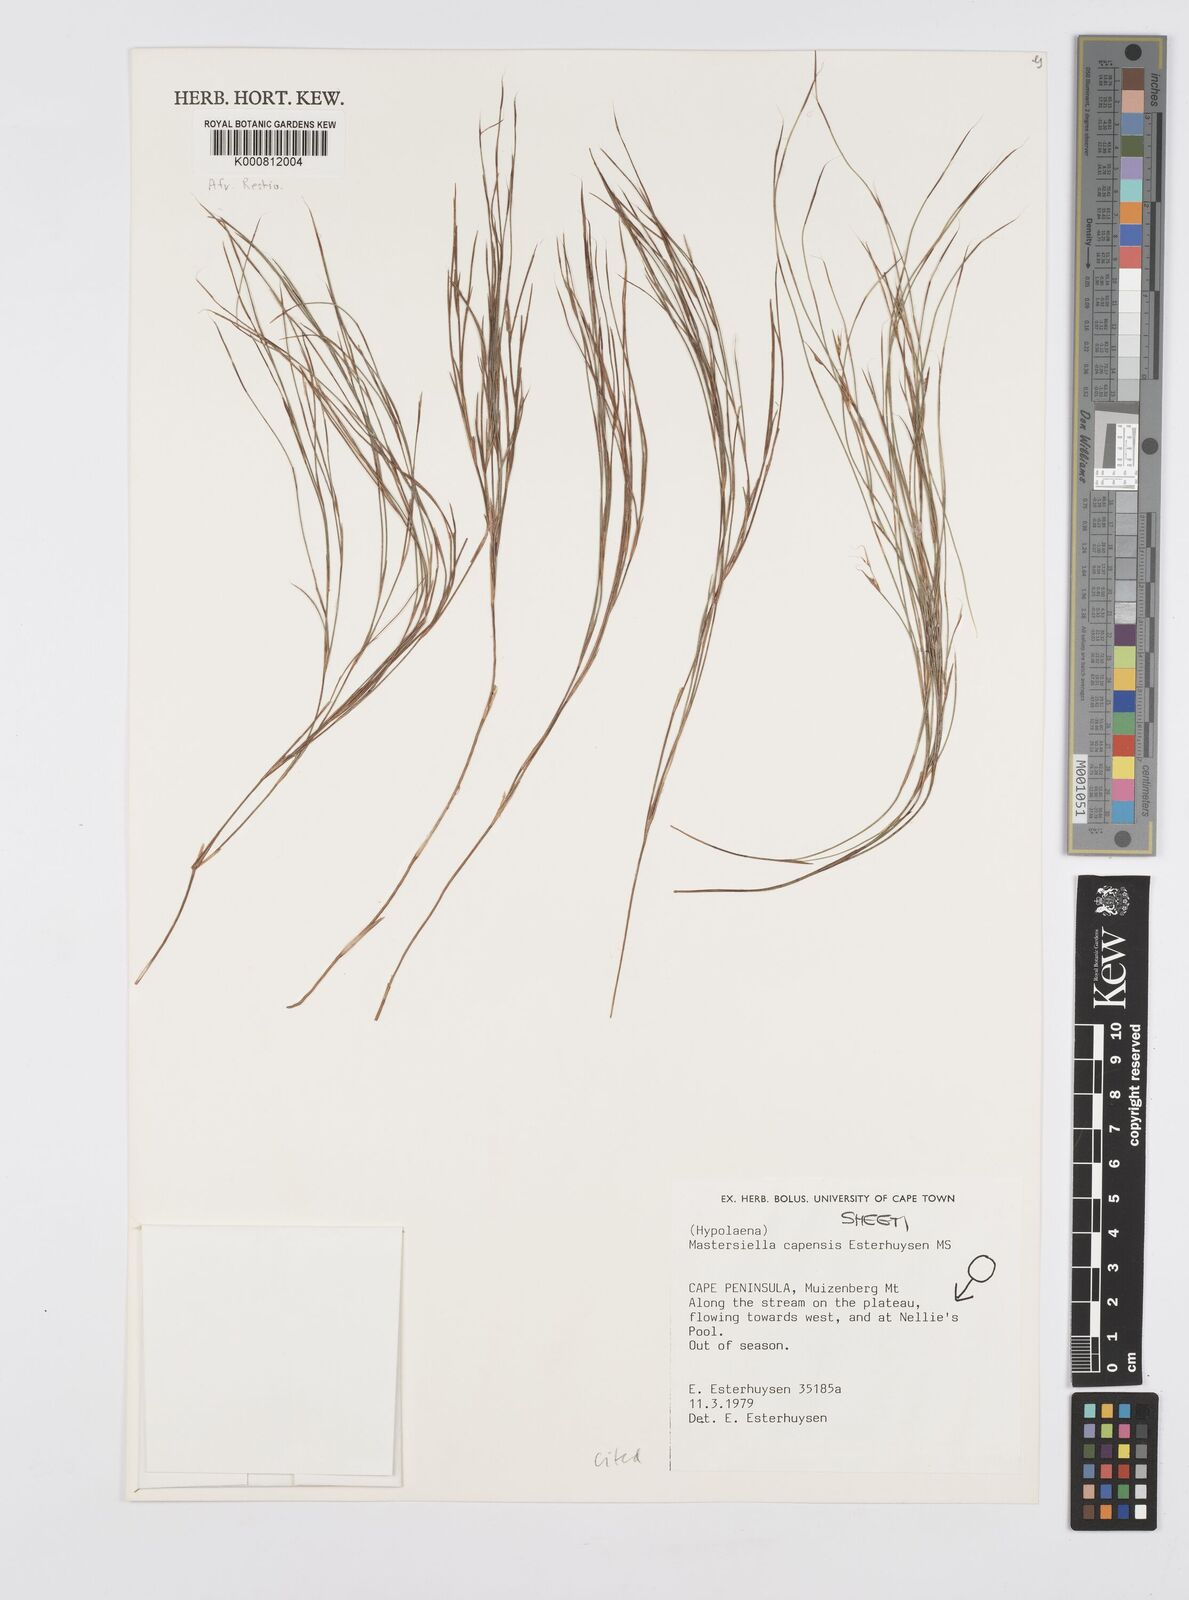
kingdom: Plantae
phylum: Tracheophyta
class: Liliopsida
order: Poales
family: Restionaceae
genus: Anthochortus
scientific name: Anthochortus capensis
